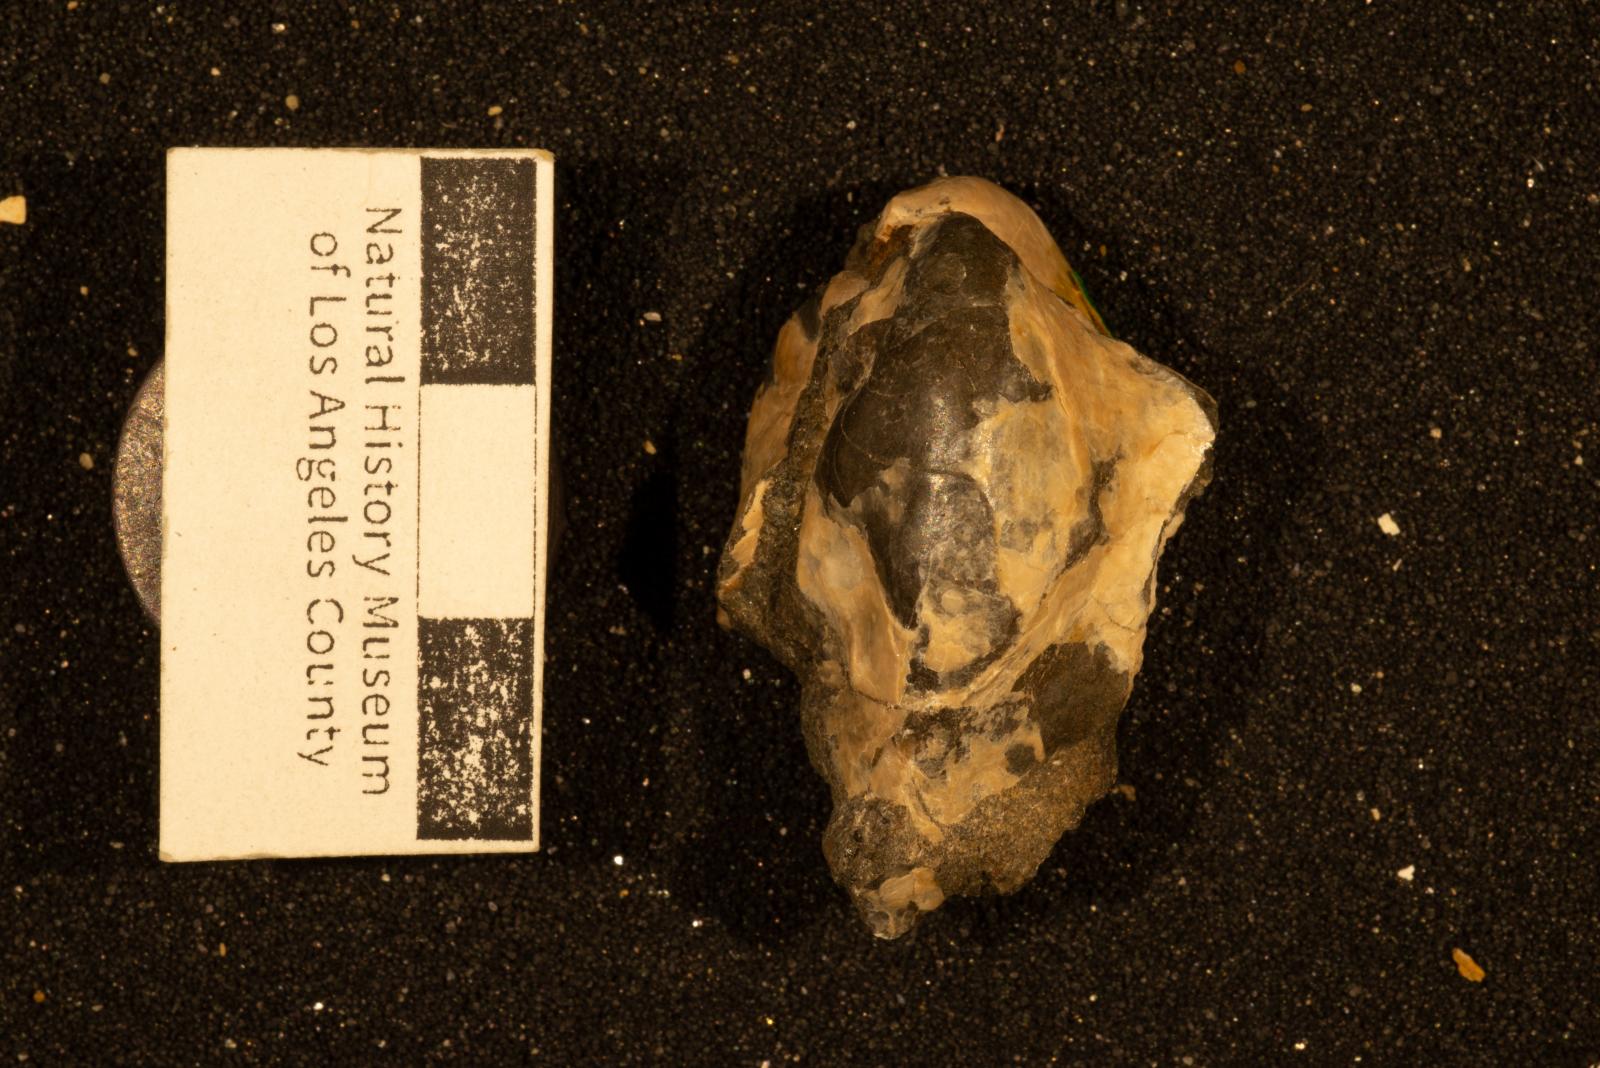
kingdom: Animalia
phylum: Mollusca
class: Bivalvia
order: Ostreida
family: Pteriidae
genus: Pteria
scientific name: Pteria pellucida
